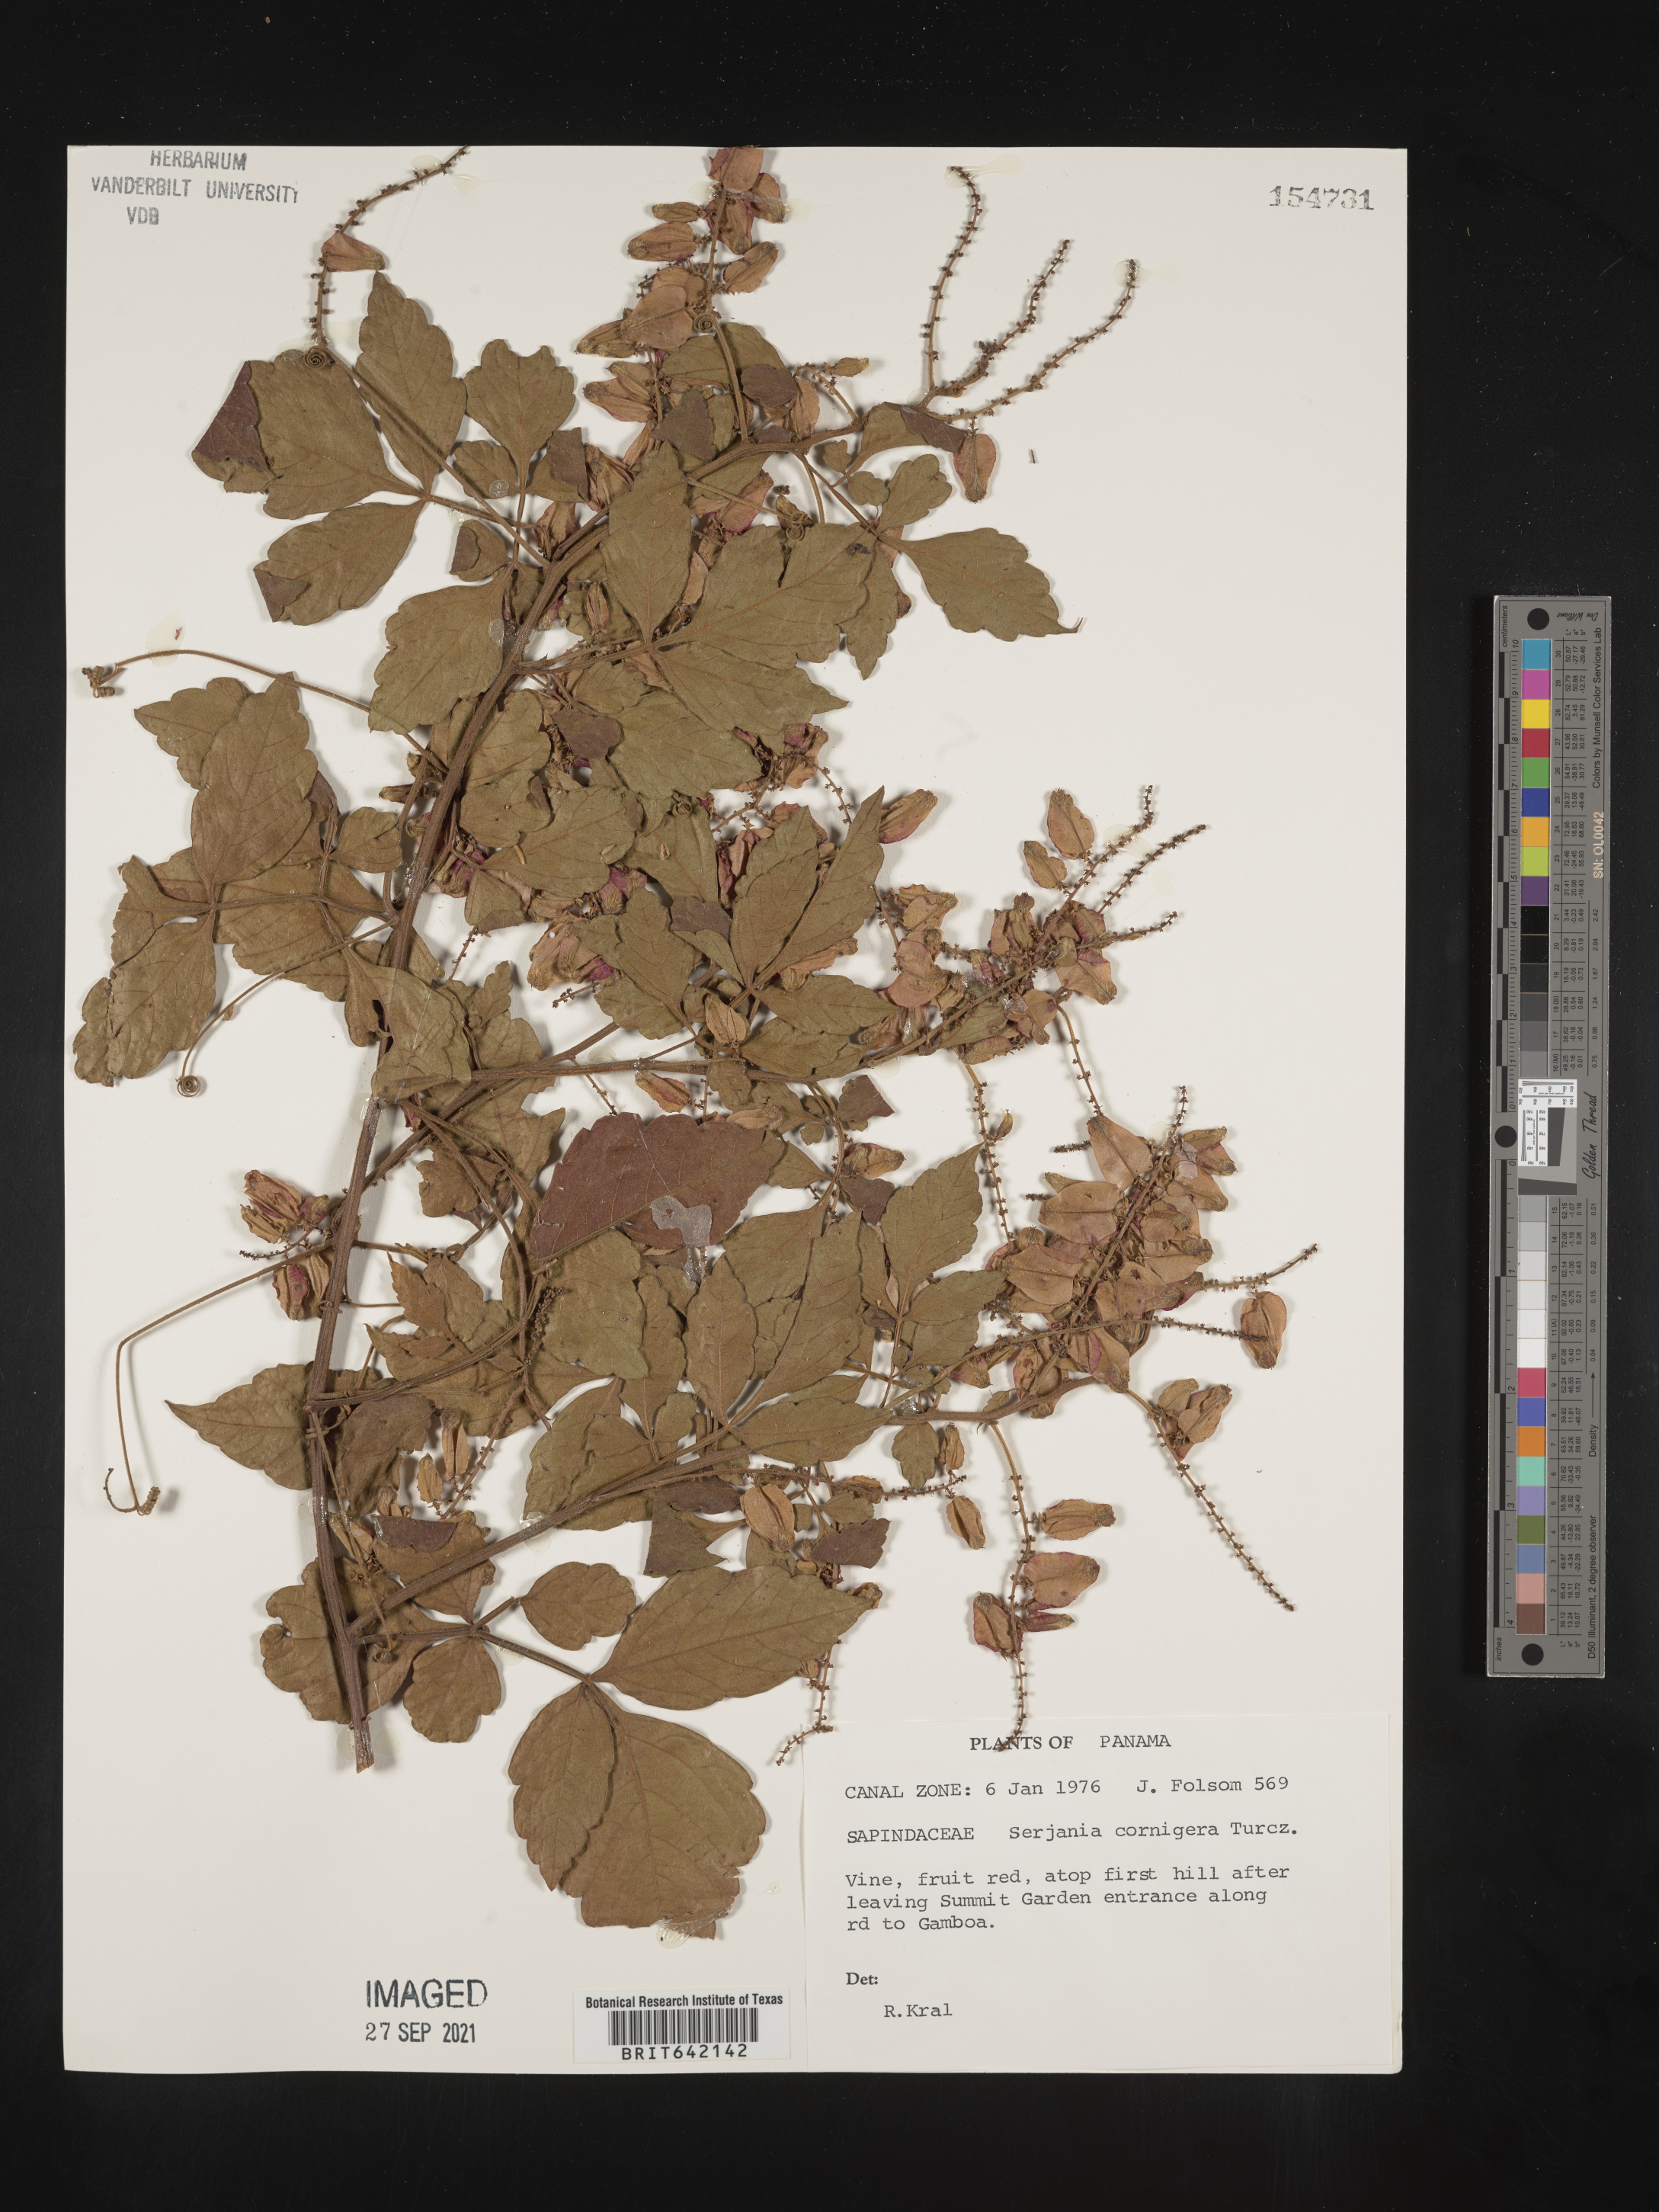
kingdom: Plantae
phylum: Tracheophyta
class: Magnoliopsida
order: Sapindales
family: Sapindaceae
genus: Serjania
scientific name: Serjania
